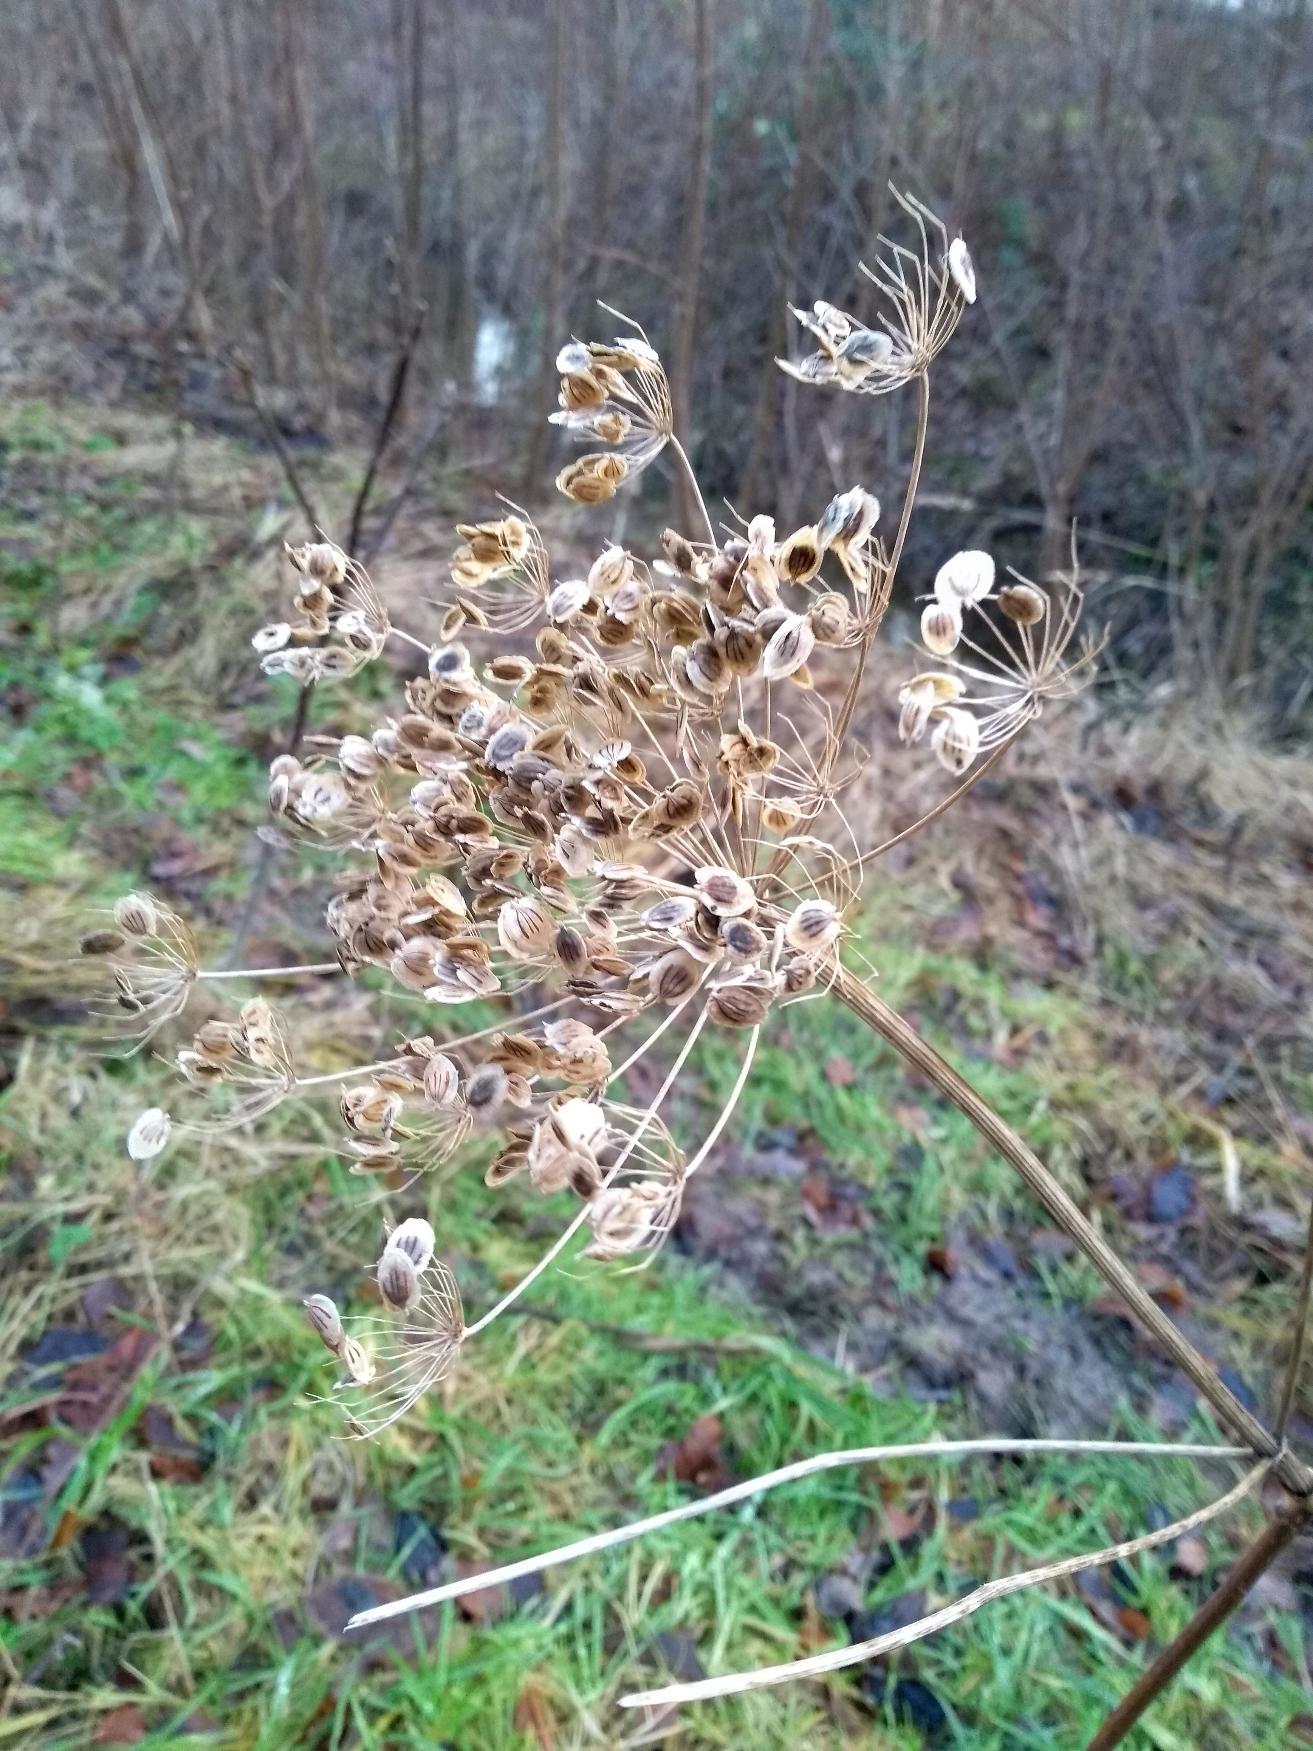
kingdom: Plantae
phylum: Tracheophyta
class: Magnoliopsida
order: Apiales
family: Apiaceae
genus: Heracleum
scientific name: Heracleum sphondylium
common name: Almindelig bjørneklo
